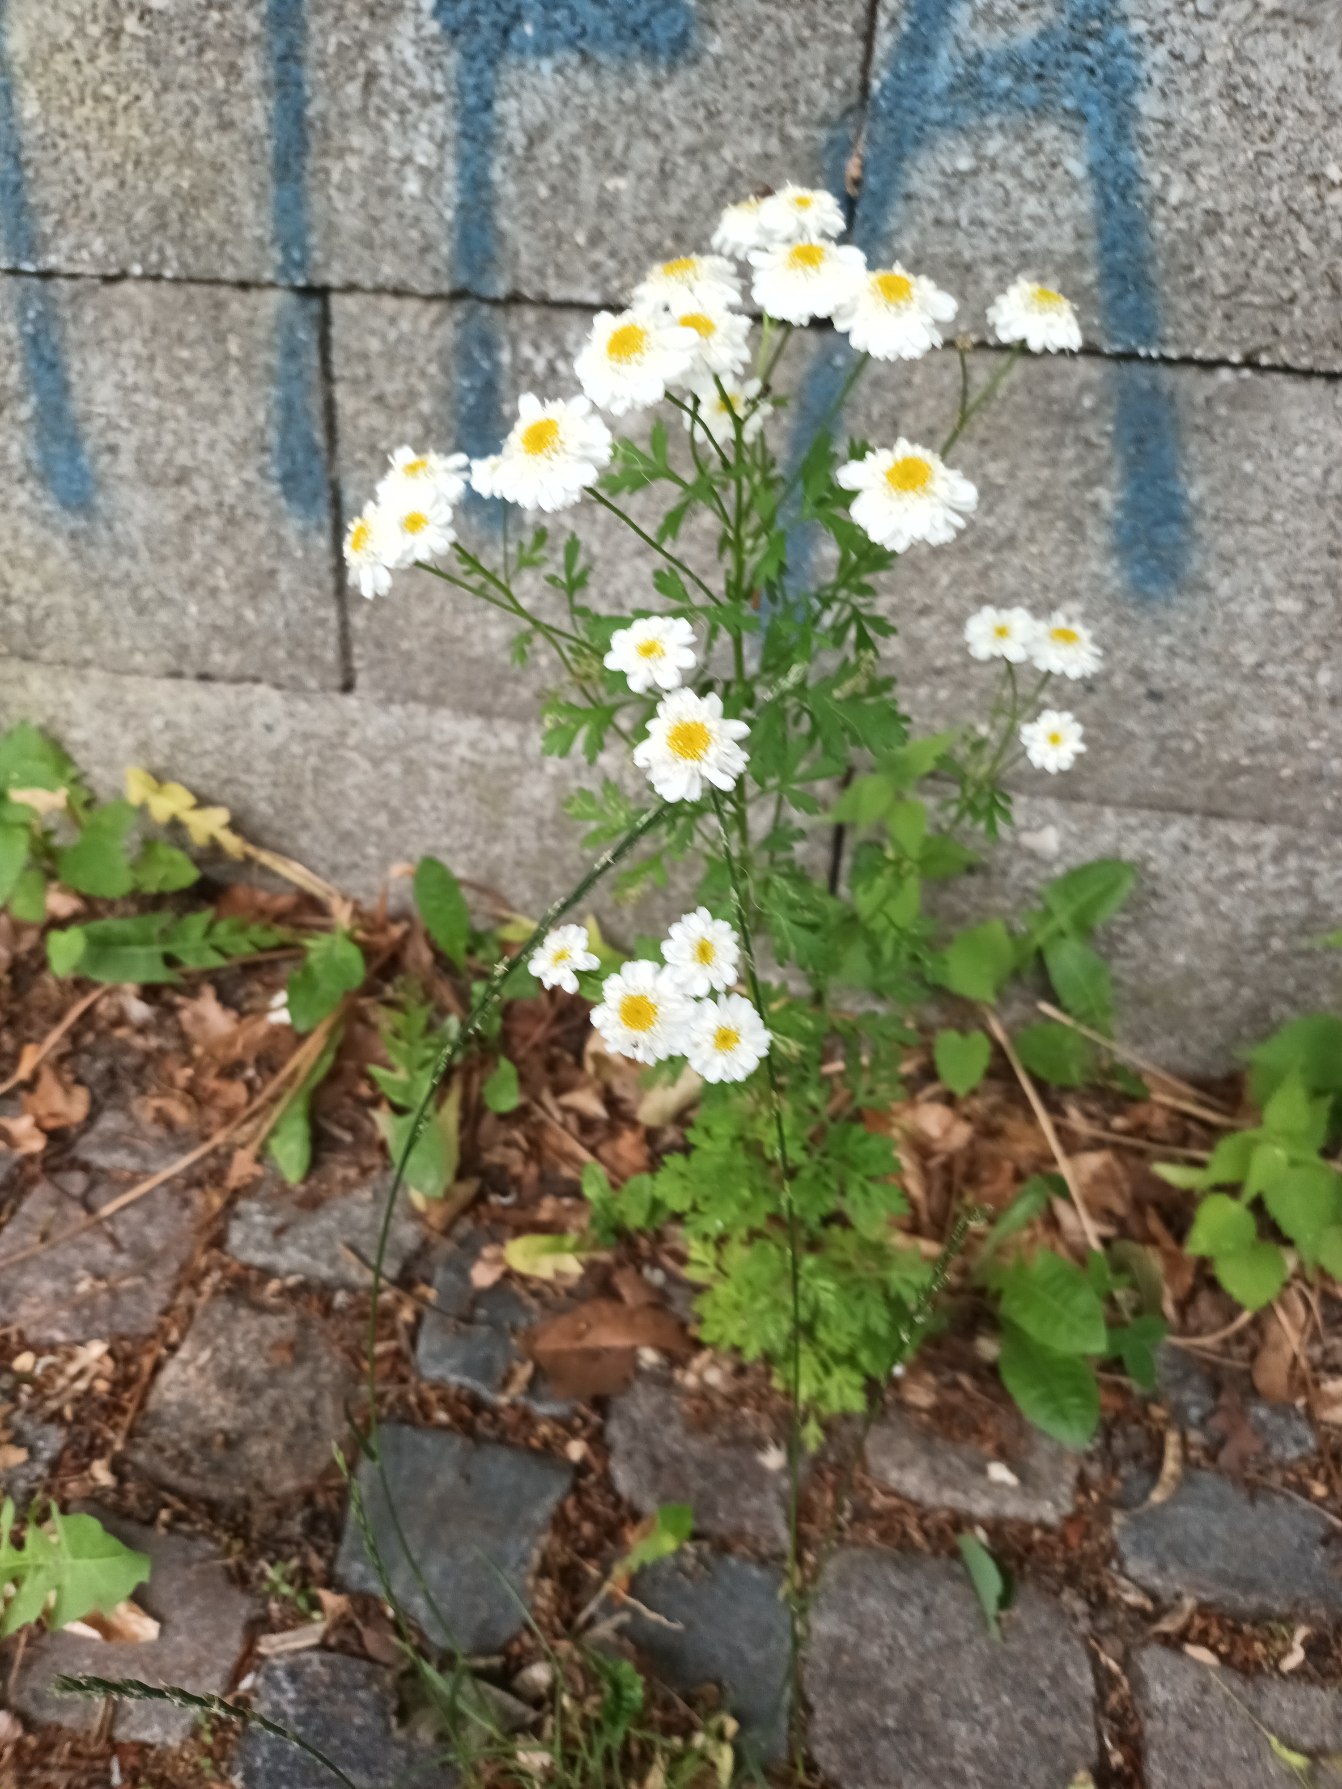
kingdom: Plantae
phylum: Tracheophyta
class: Magnoliopsida
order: Asterales
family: Asteraceae
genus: Tanacetum
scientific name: Tanacetum parthenium
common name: Matrem
